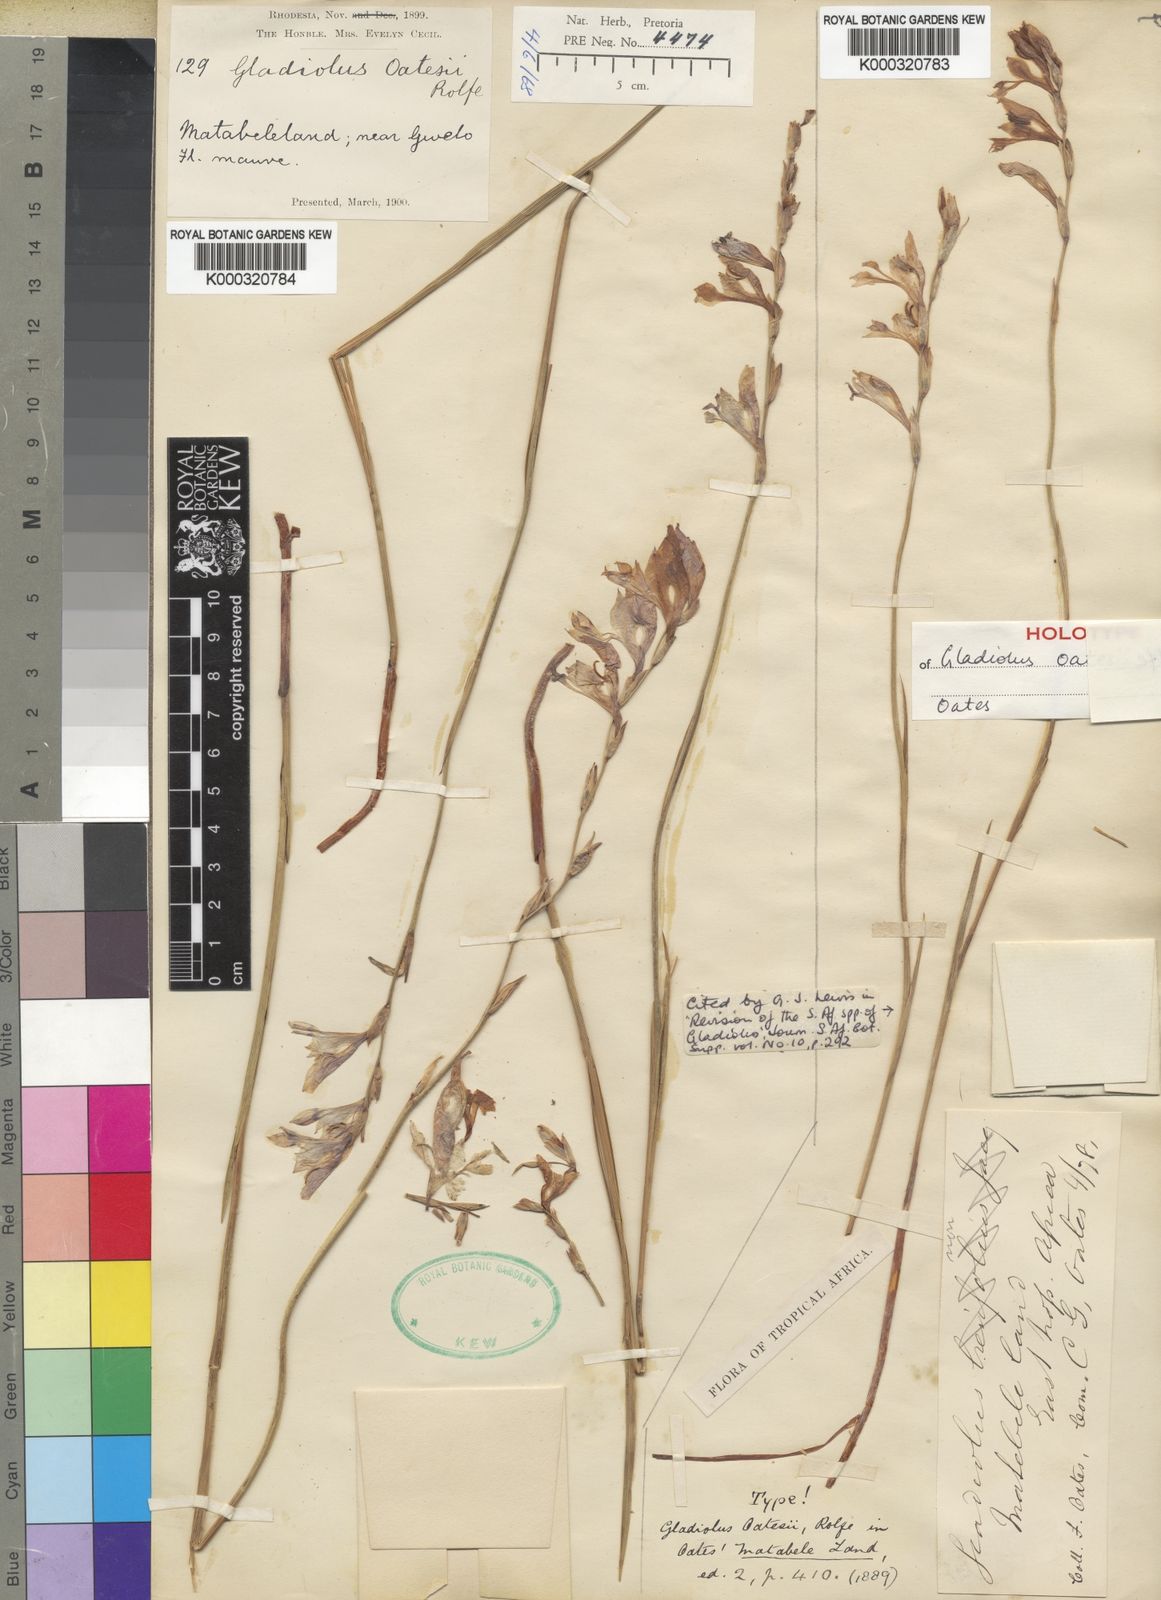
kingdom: Plantae
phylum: Tracheophyta
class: Liliopsida
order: Asparagales
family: Iridaceae
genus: Gladiolus
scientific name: Gladiolus unguiculatus
